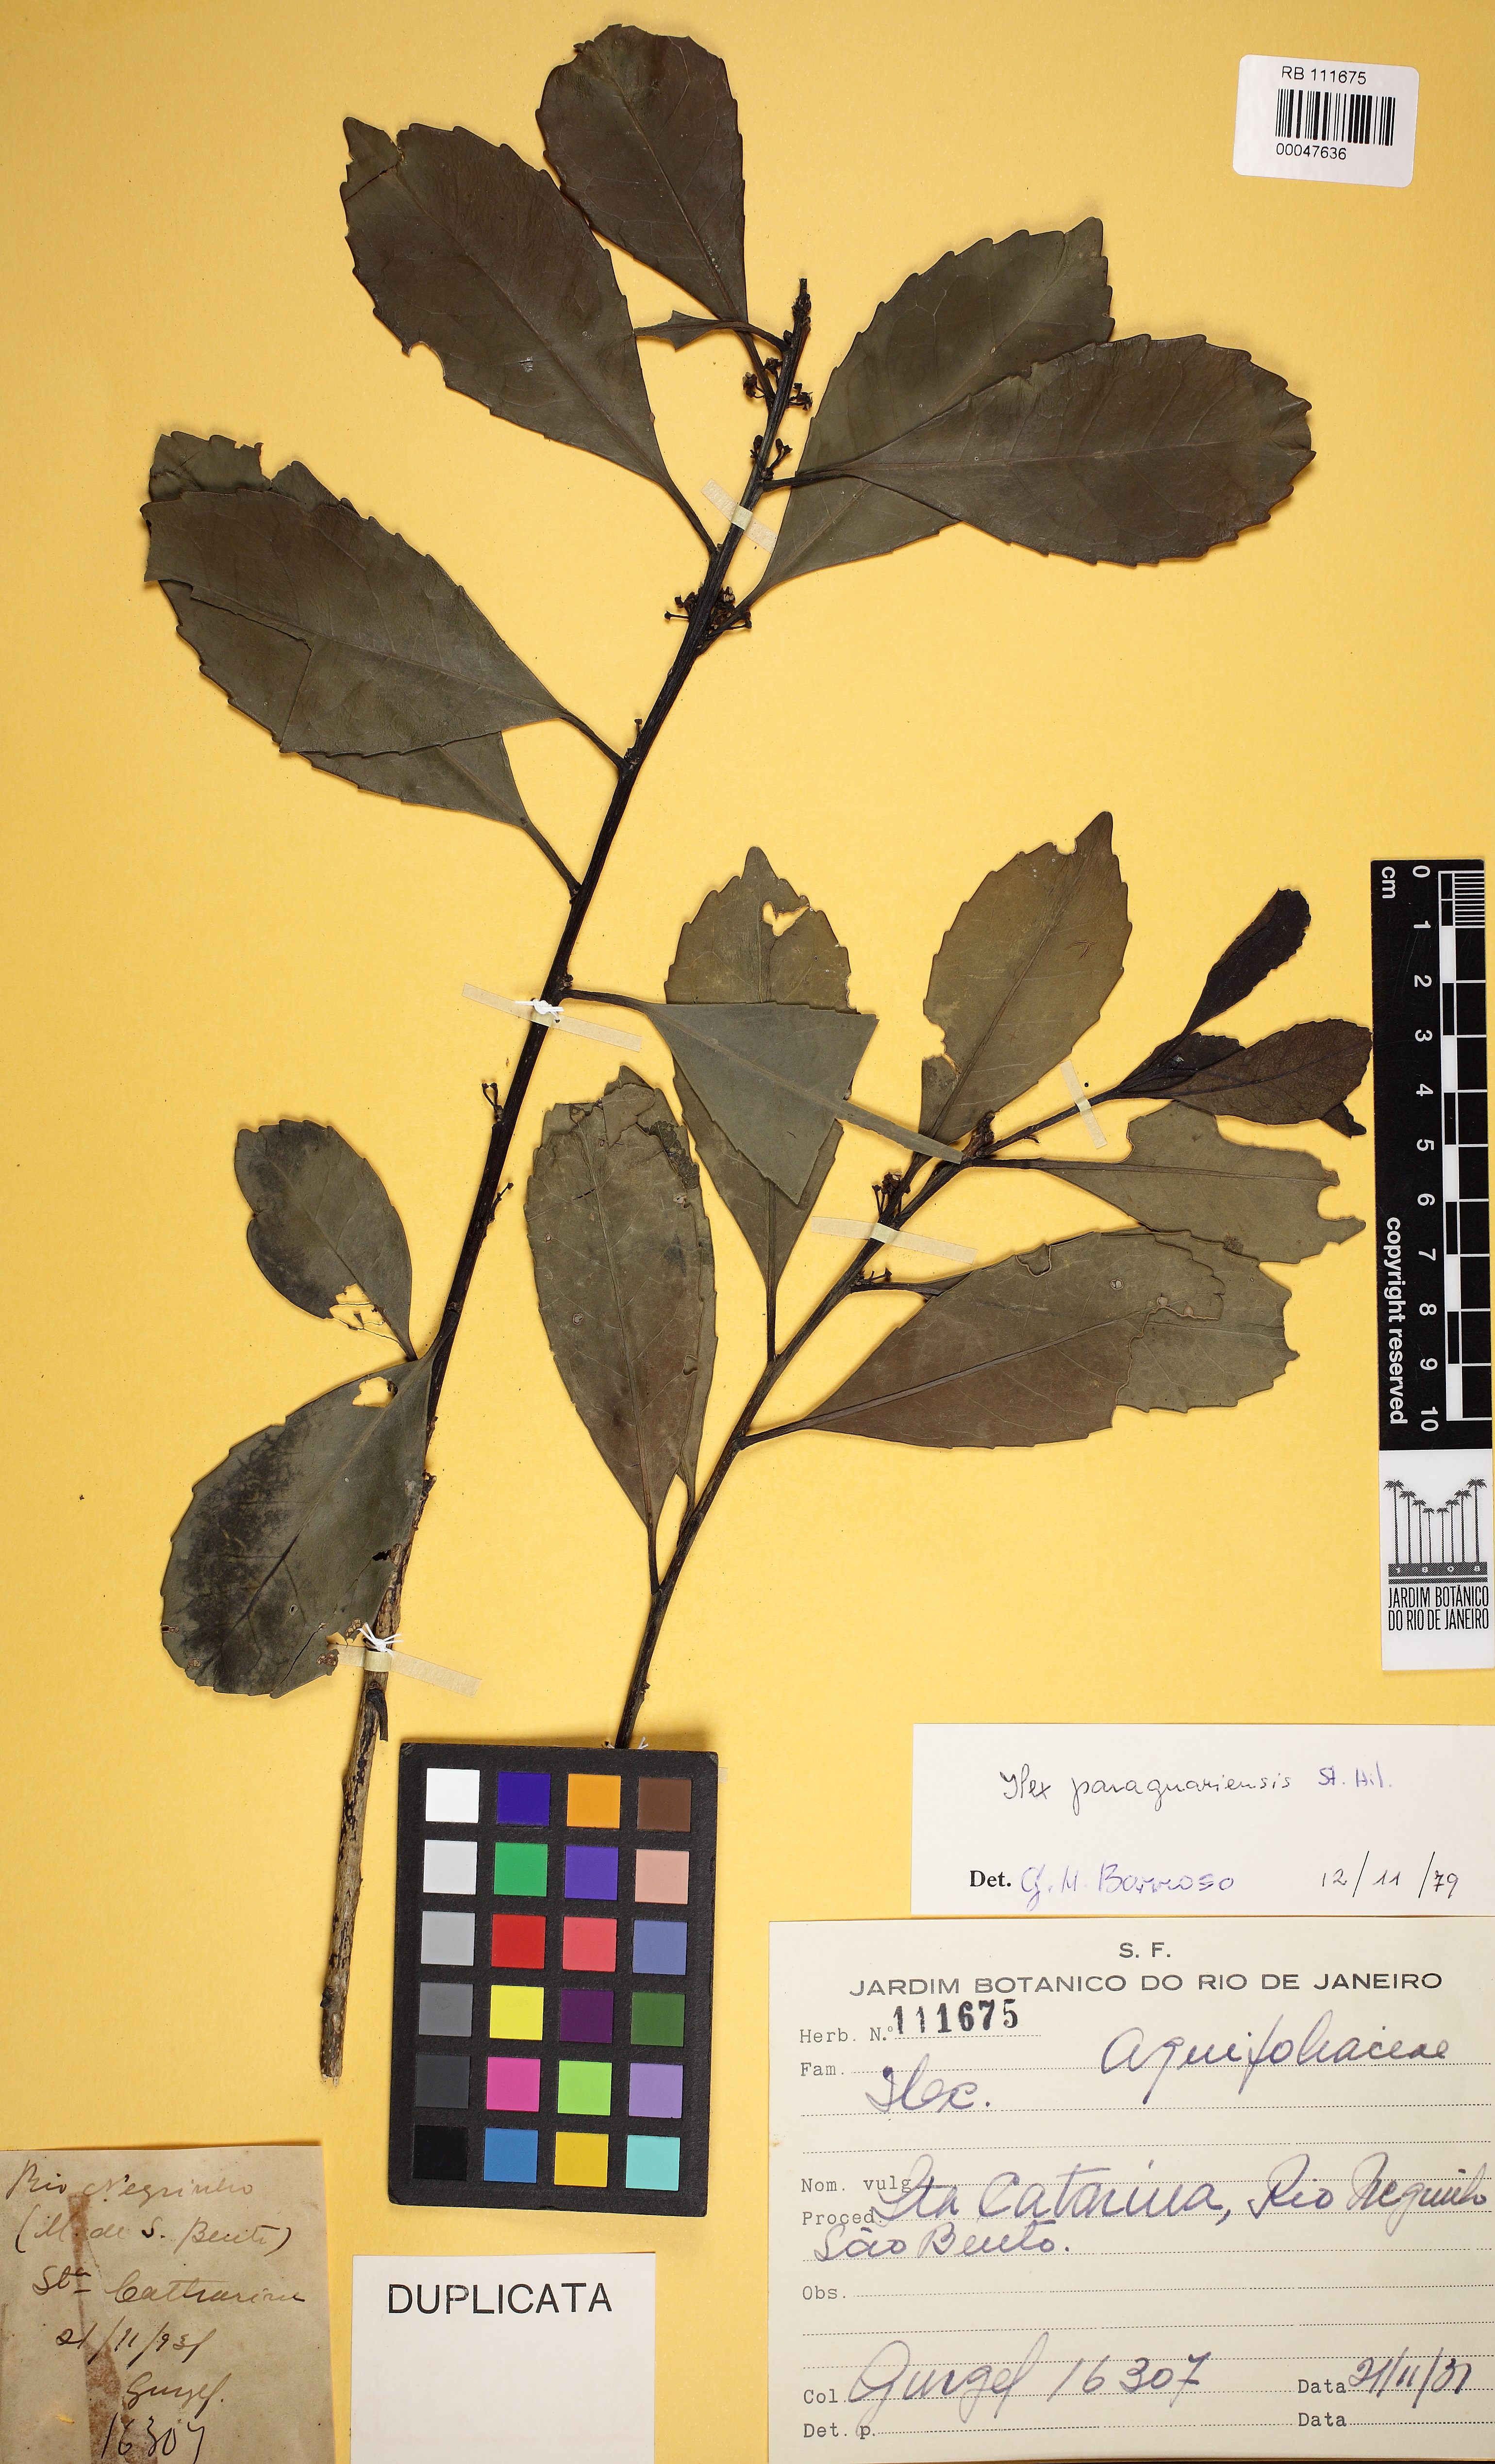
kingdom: Plantae
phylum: Tracheophyta
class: Magnoliopsida
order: Aquifoliales
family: Aquifoliaceae
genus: Ilex
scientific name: Ilex paraguariensis
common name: Paraguay tea
